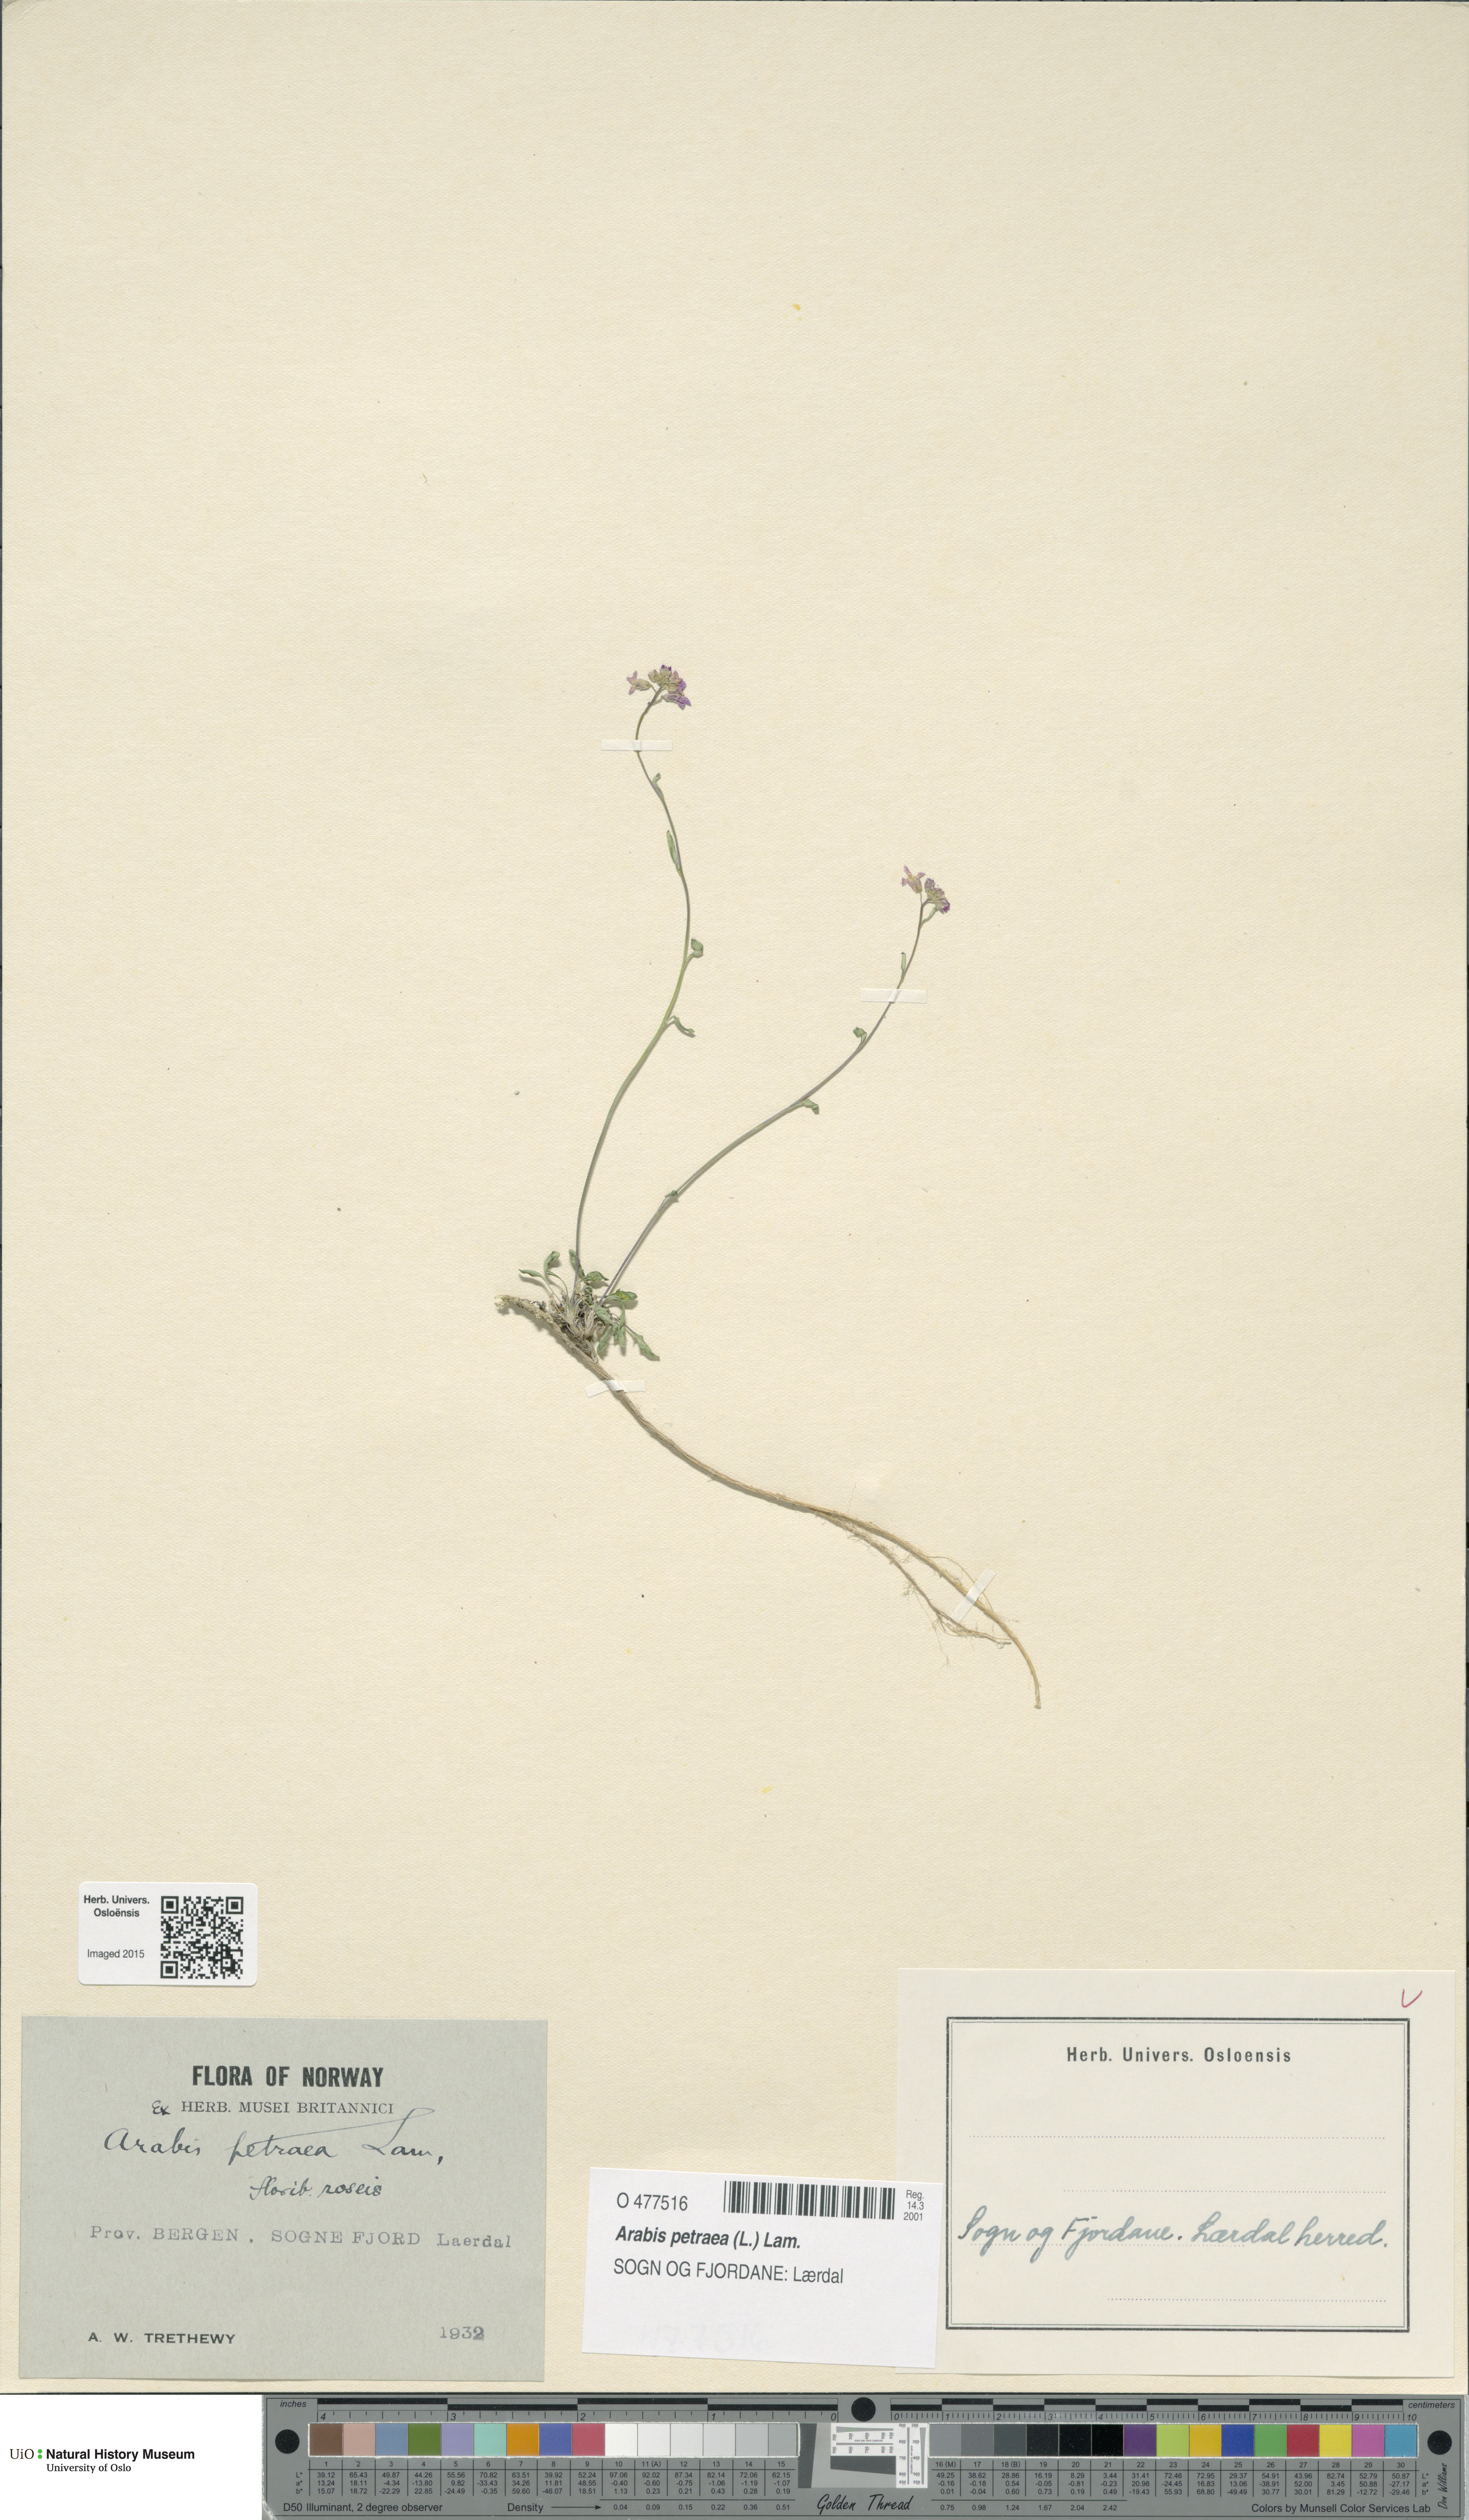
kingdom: Plantae
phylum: Tracheophyta
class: Magnoliopsida
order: Brassicales
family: Brassicaceae
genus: Arabidopsis
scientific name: Arabidopsis petraea
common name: Northern rock-cress
